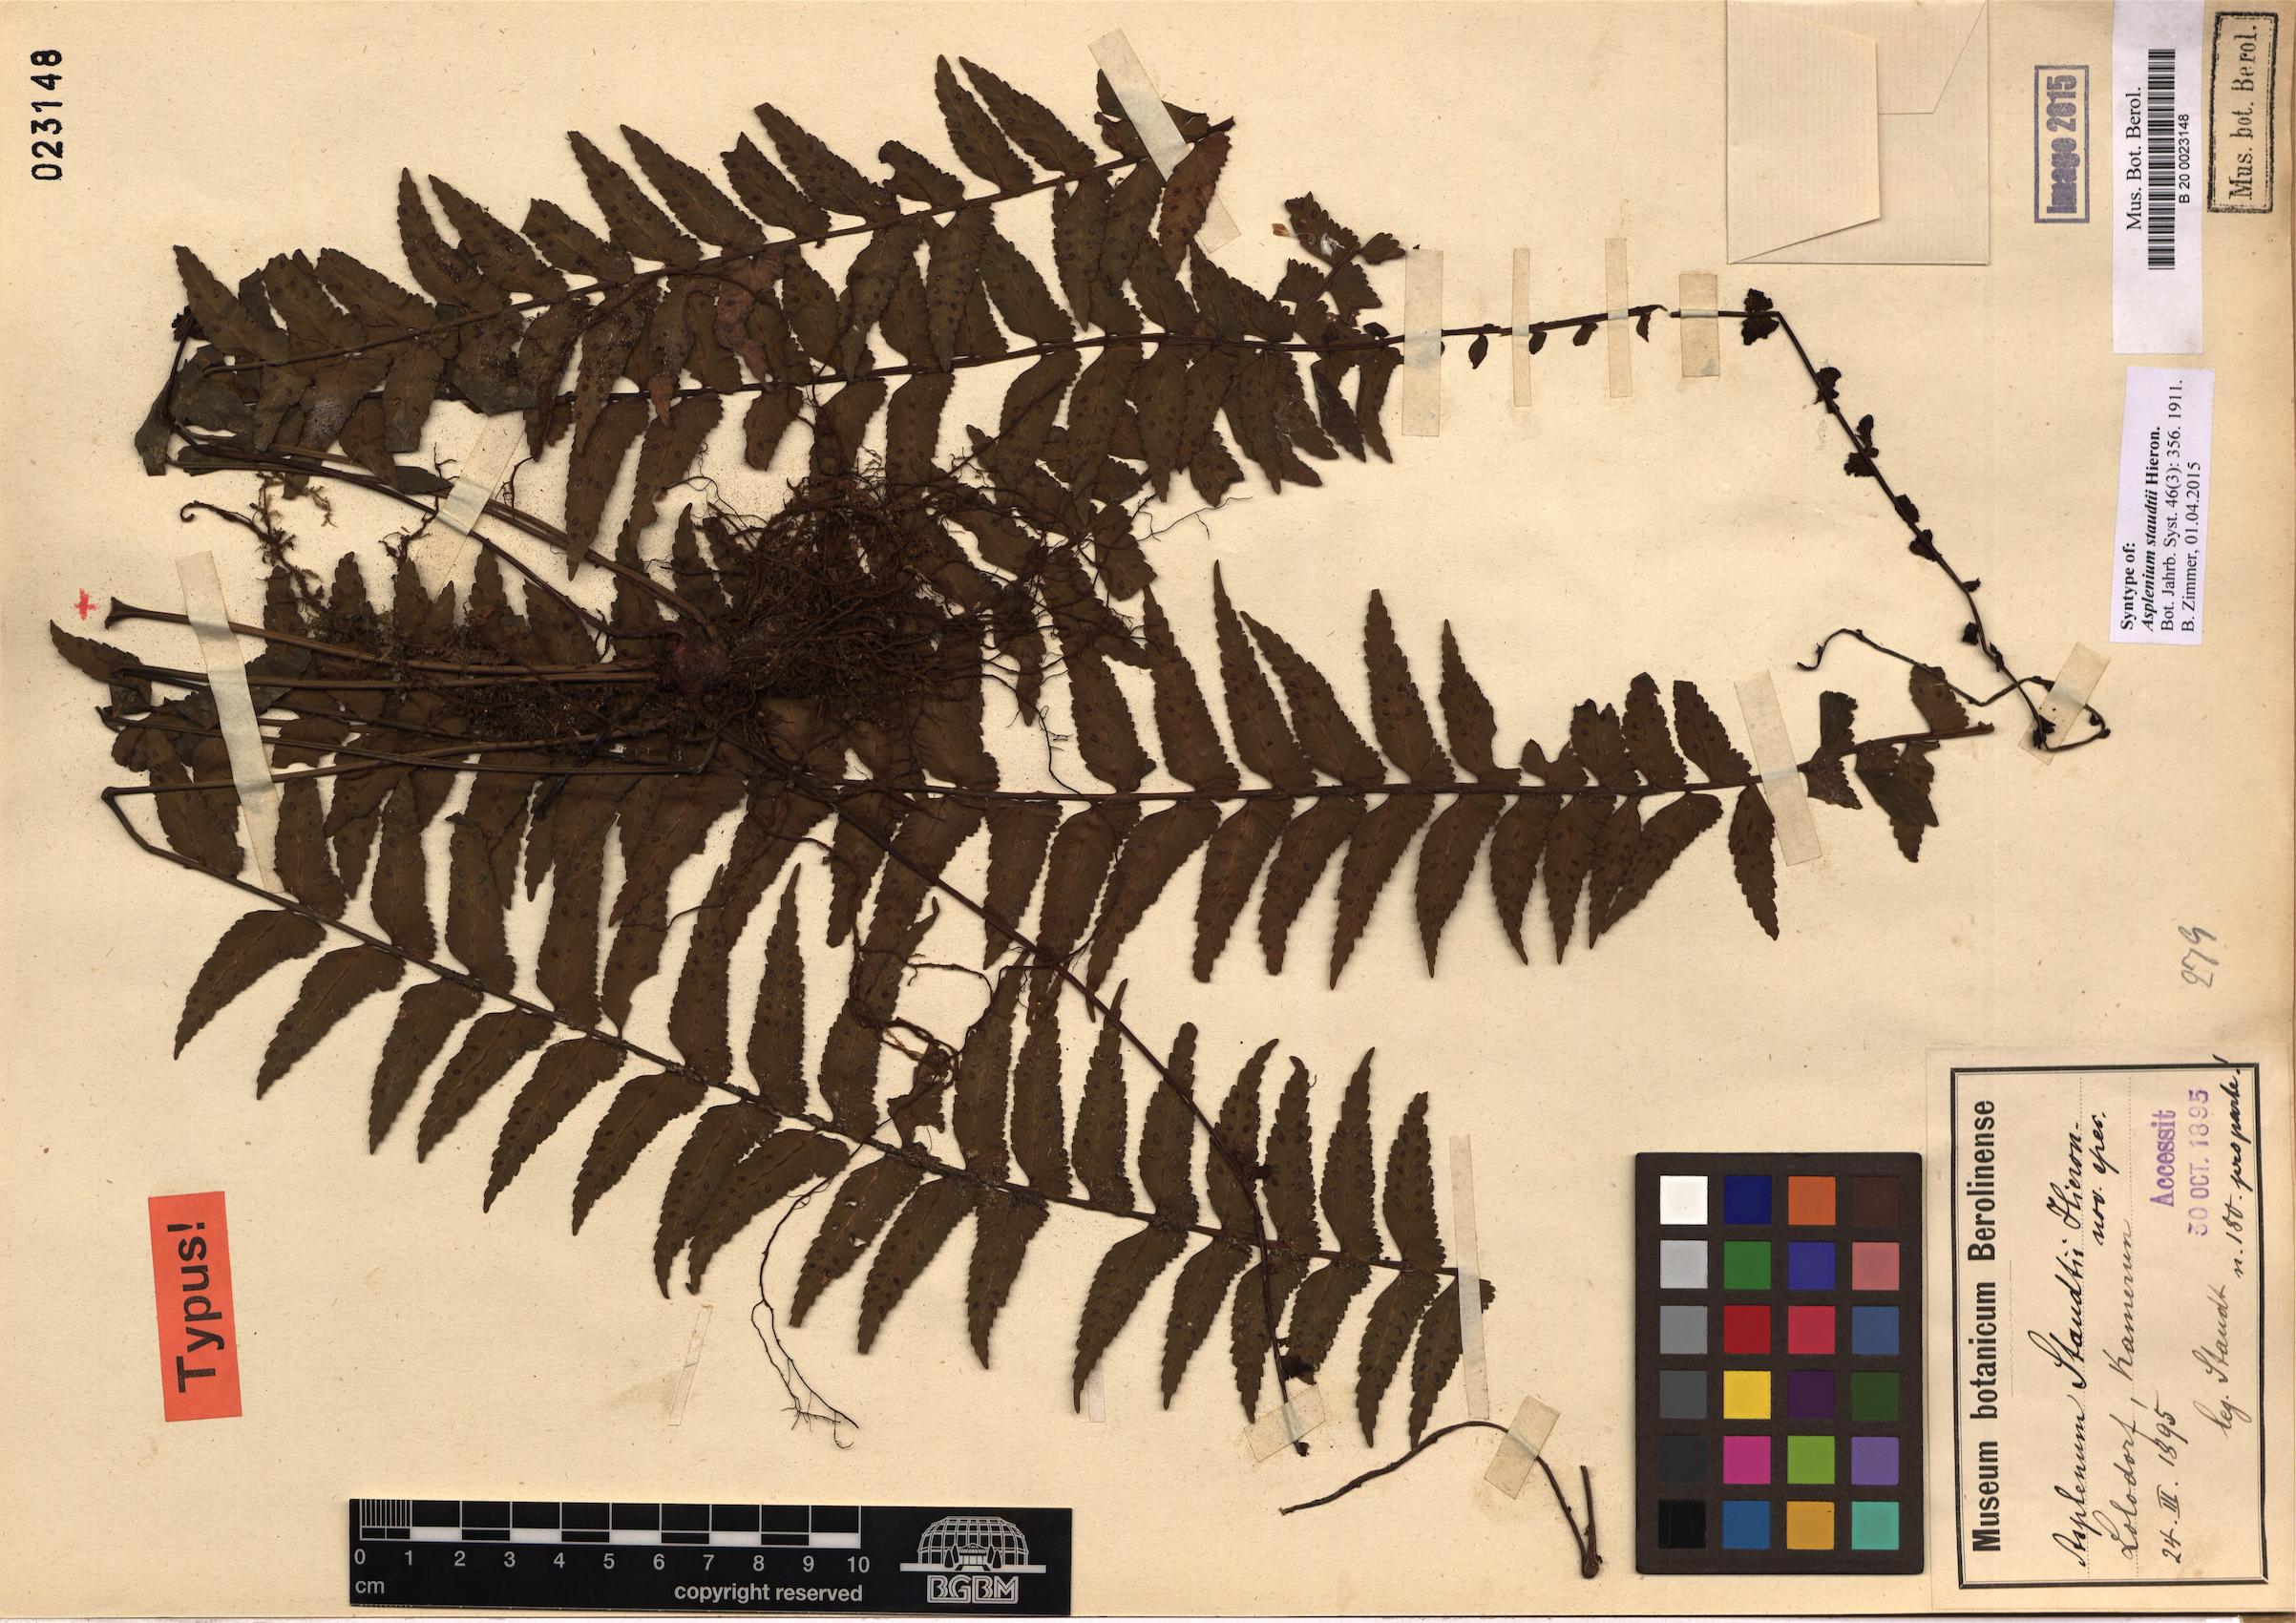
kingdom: Plantae
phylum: Tracheophyta
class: Polypodiopsida
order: Polypodiales
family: Aspleniaceae
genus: Asplenium
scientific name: Asplenium staudtii
